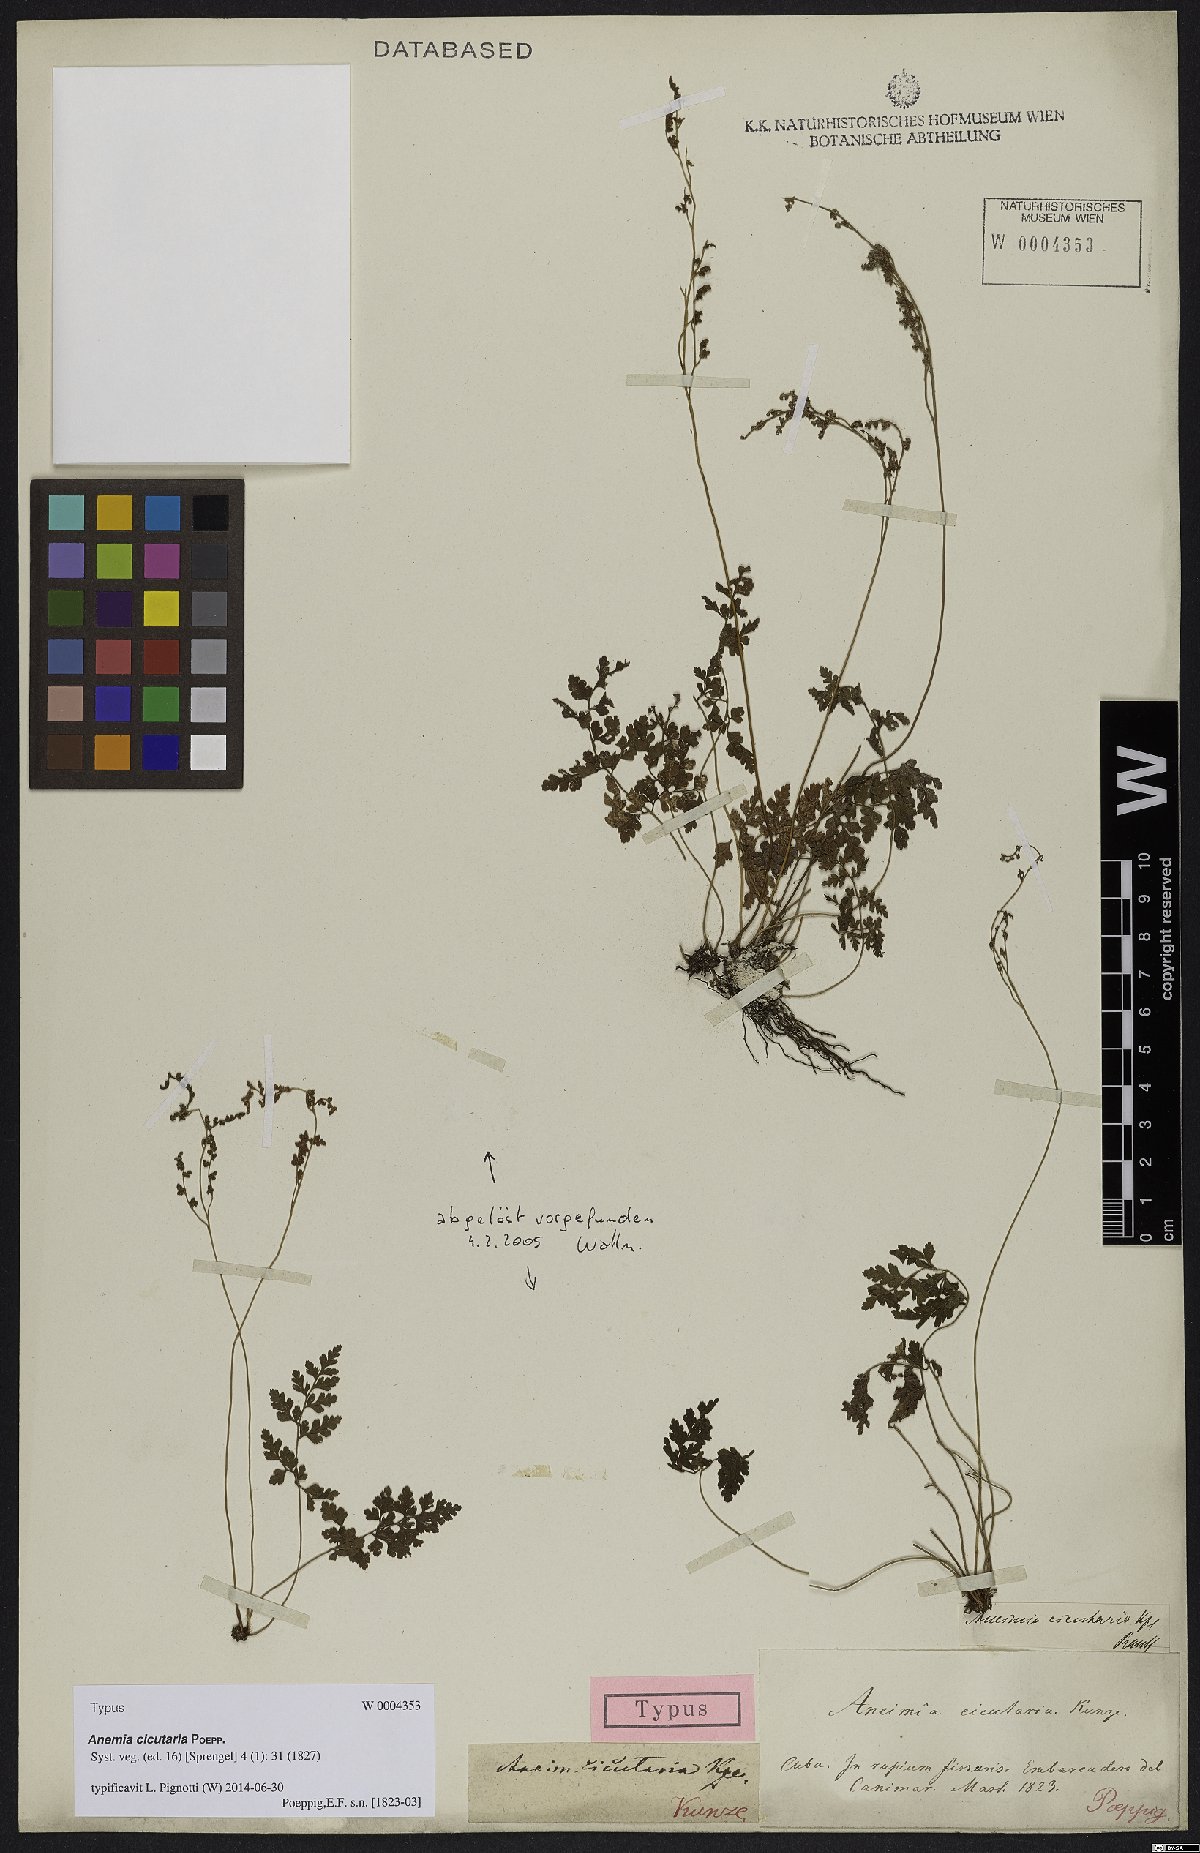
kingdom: Plantae
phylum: Tracheophyta
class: Polypodiopsida
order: Schizaeales
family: Anemiaceae
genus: Anemia
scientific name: Anemia cicutaria
